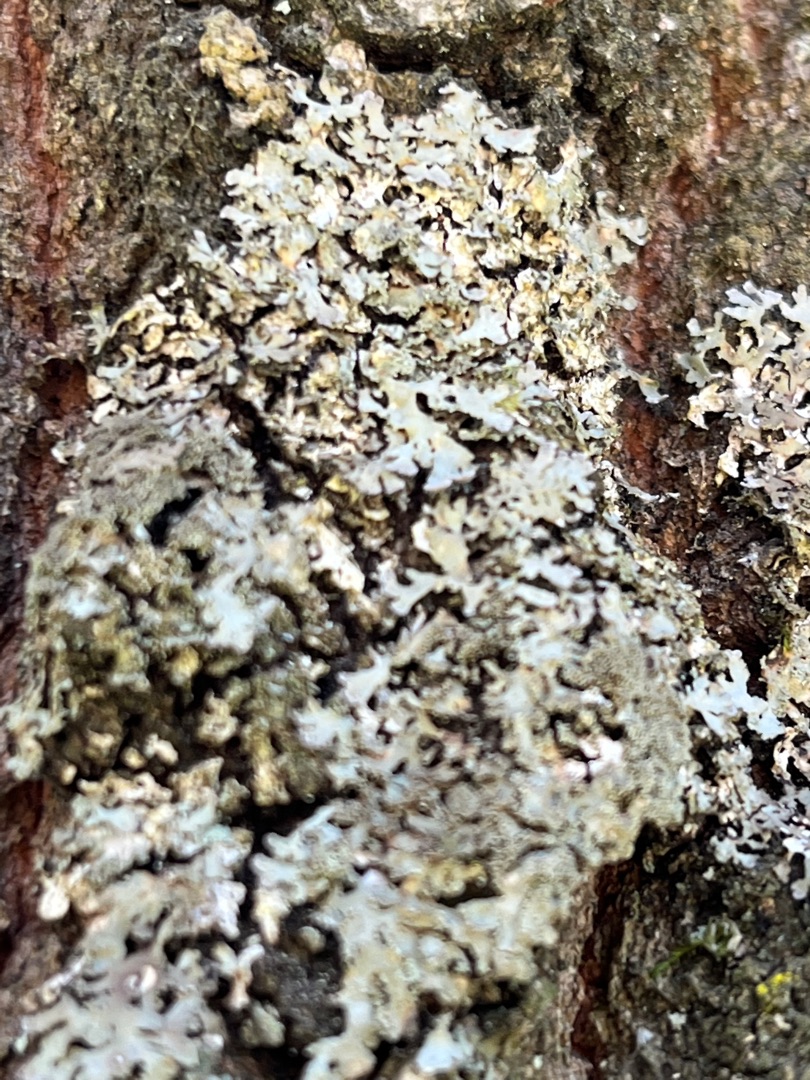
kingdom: Fungi
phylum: Ascomycota
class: Lecanoromycetes
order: Caliciales
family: Physciaceae
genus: Physcia
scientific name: Physcia tenella
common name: Spæd rosetlav
